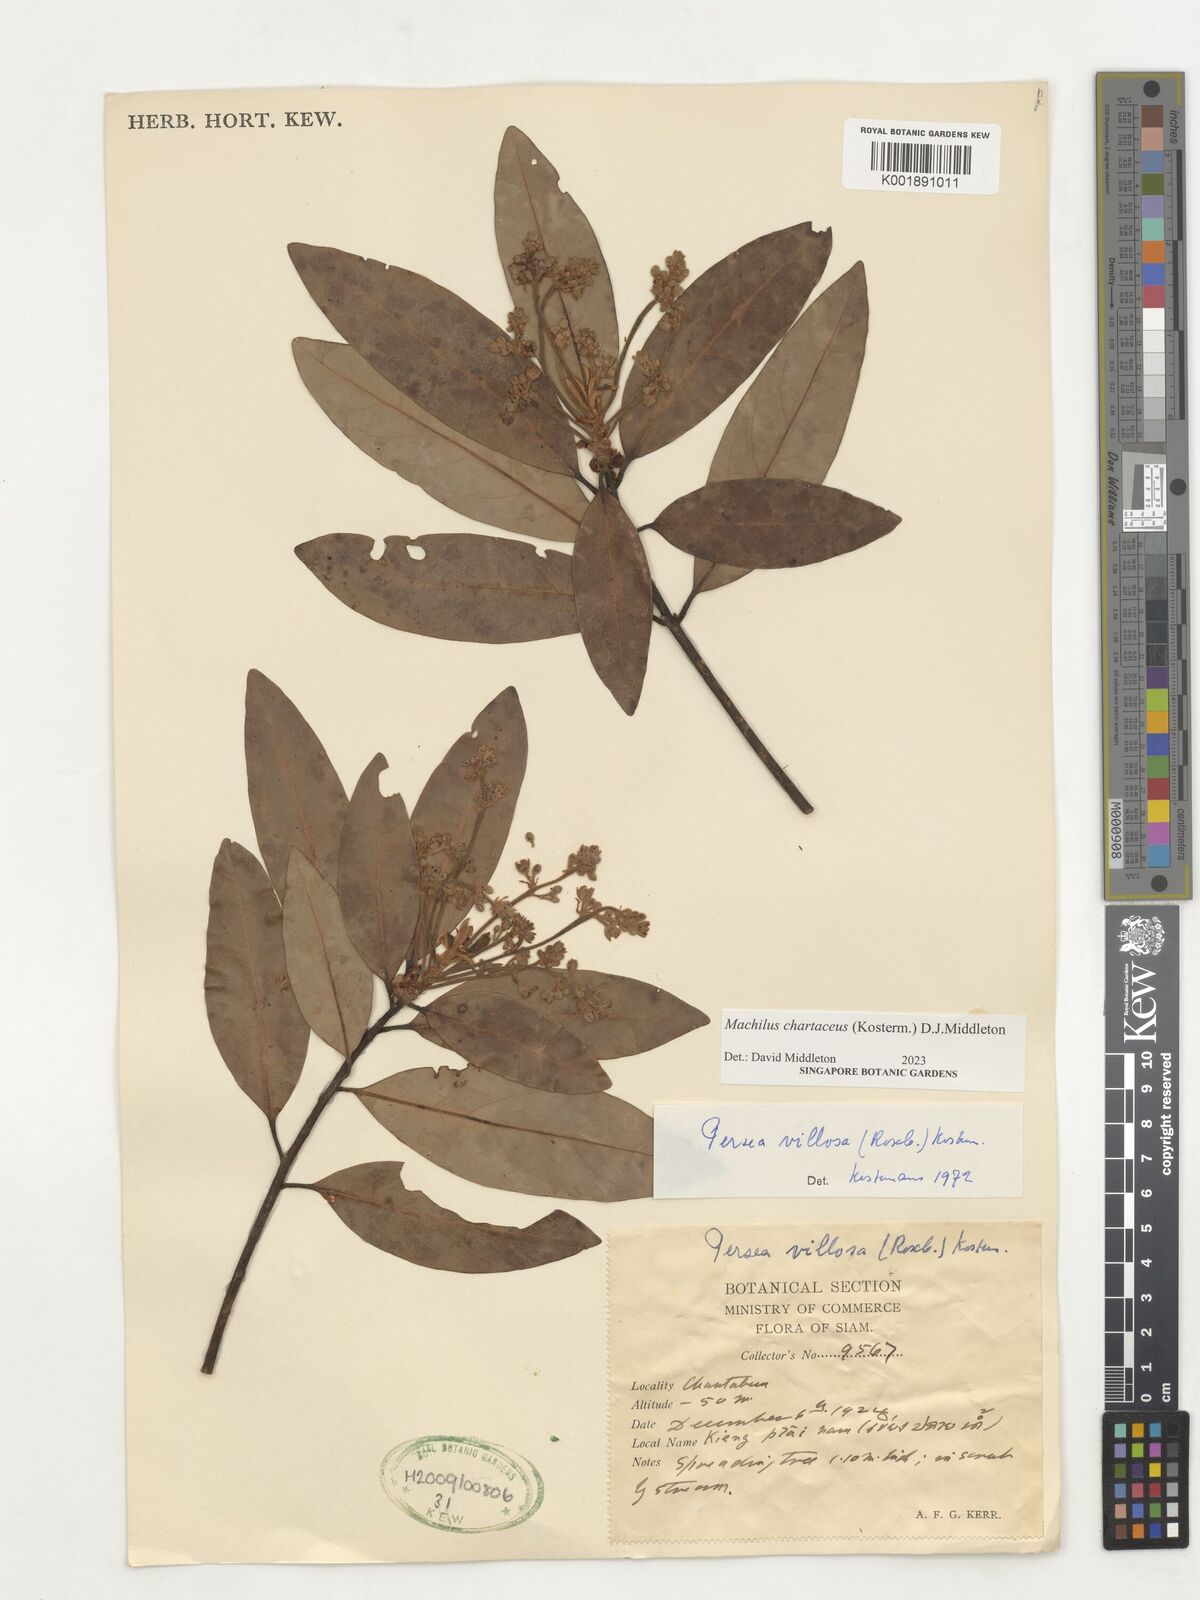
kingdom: Plantae
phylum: Tracheophyta
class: Magnoliopsida
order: Laurales
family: Lauraceae
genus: Machilus
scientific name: Machilus
